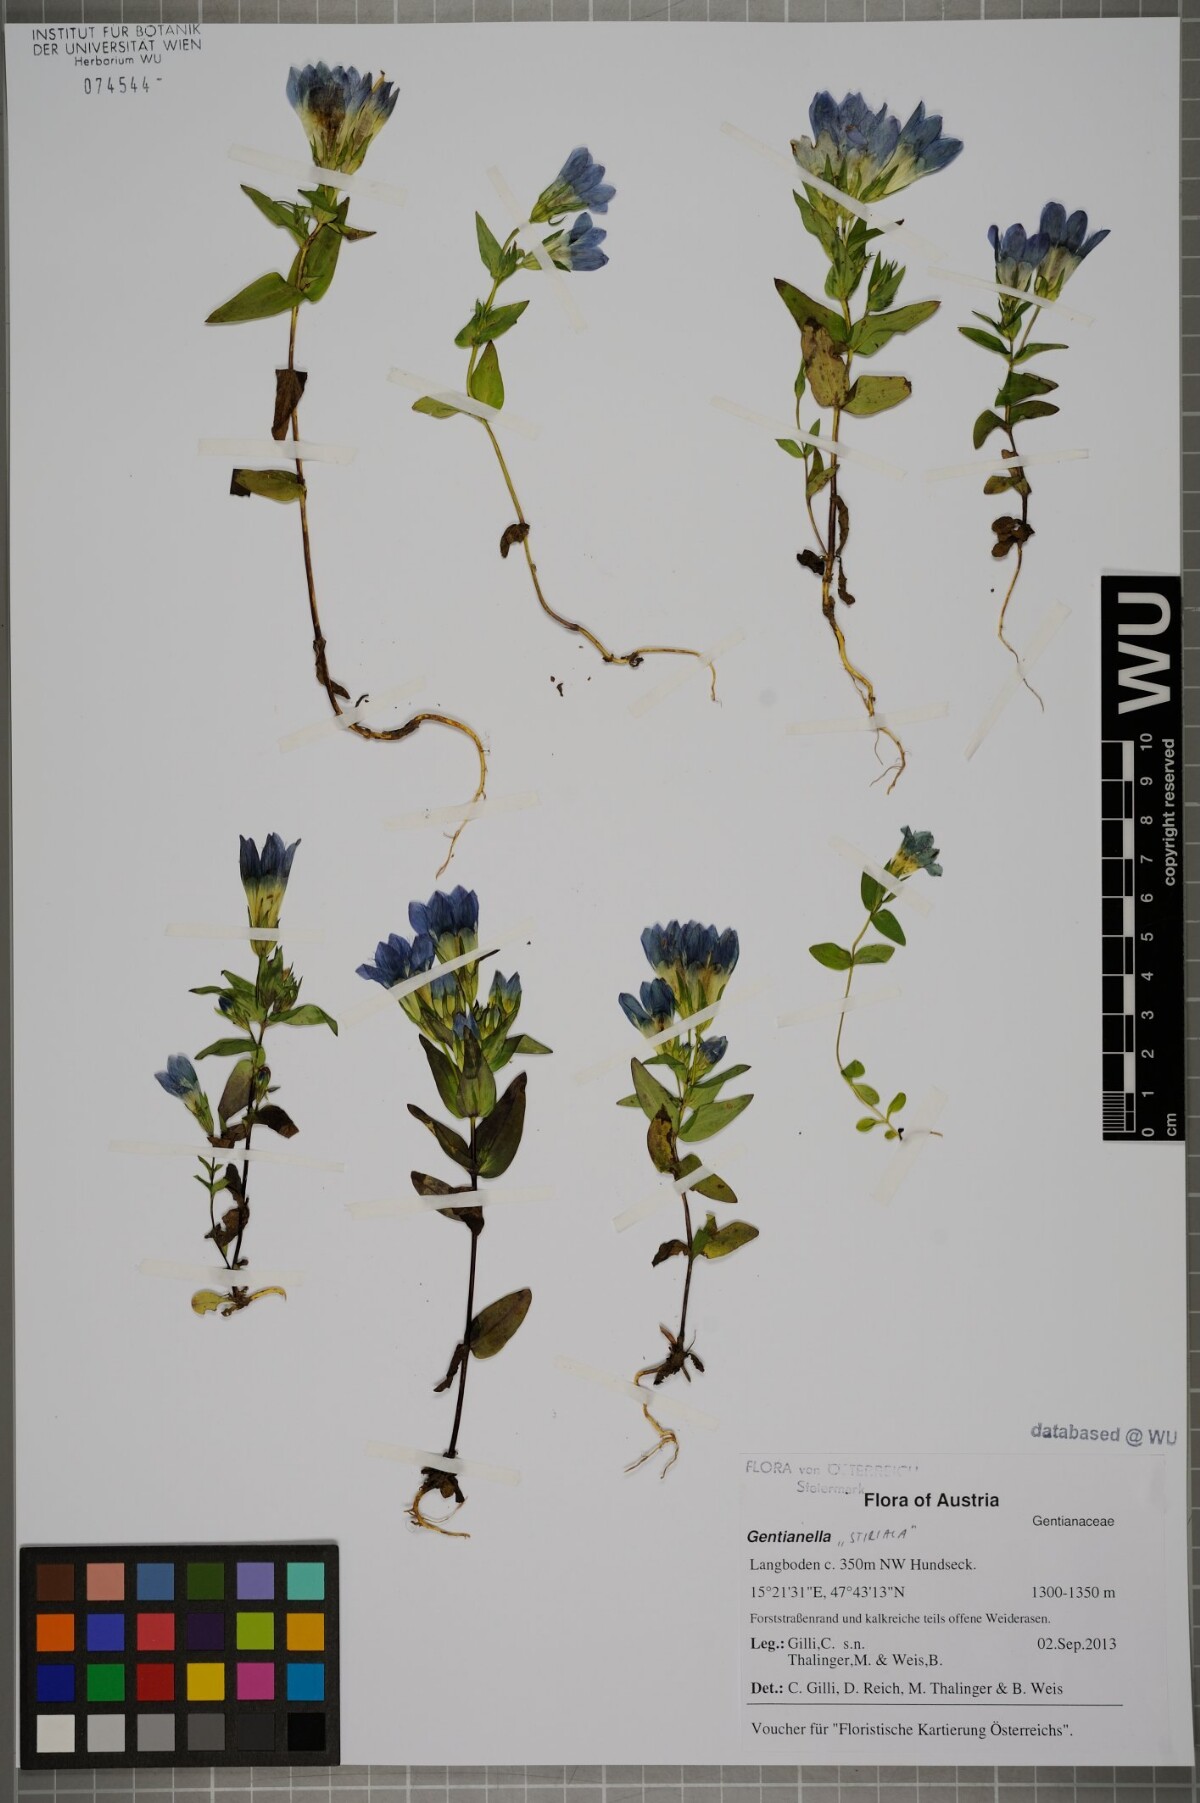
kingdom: Plantae
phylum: Tracheophyta
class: Magnoliopsida
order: Gentianales
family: Gentianaceae
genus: Gentianella
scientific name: Gentianella
